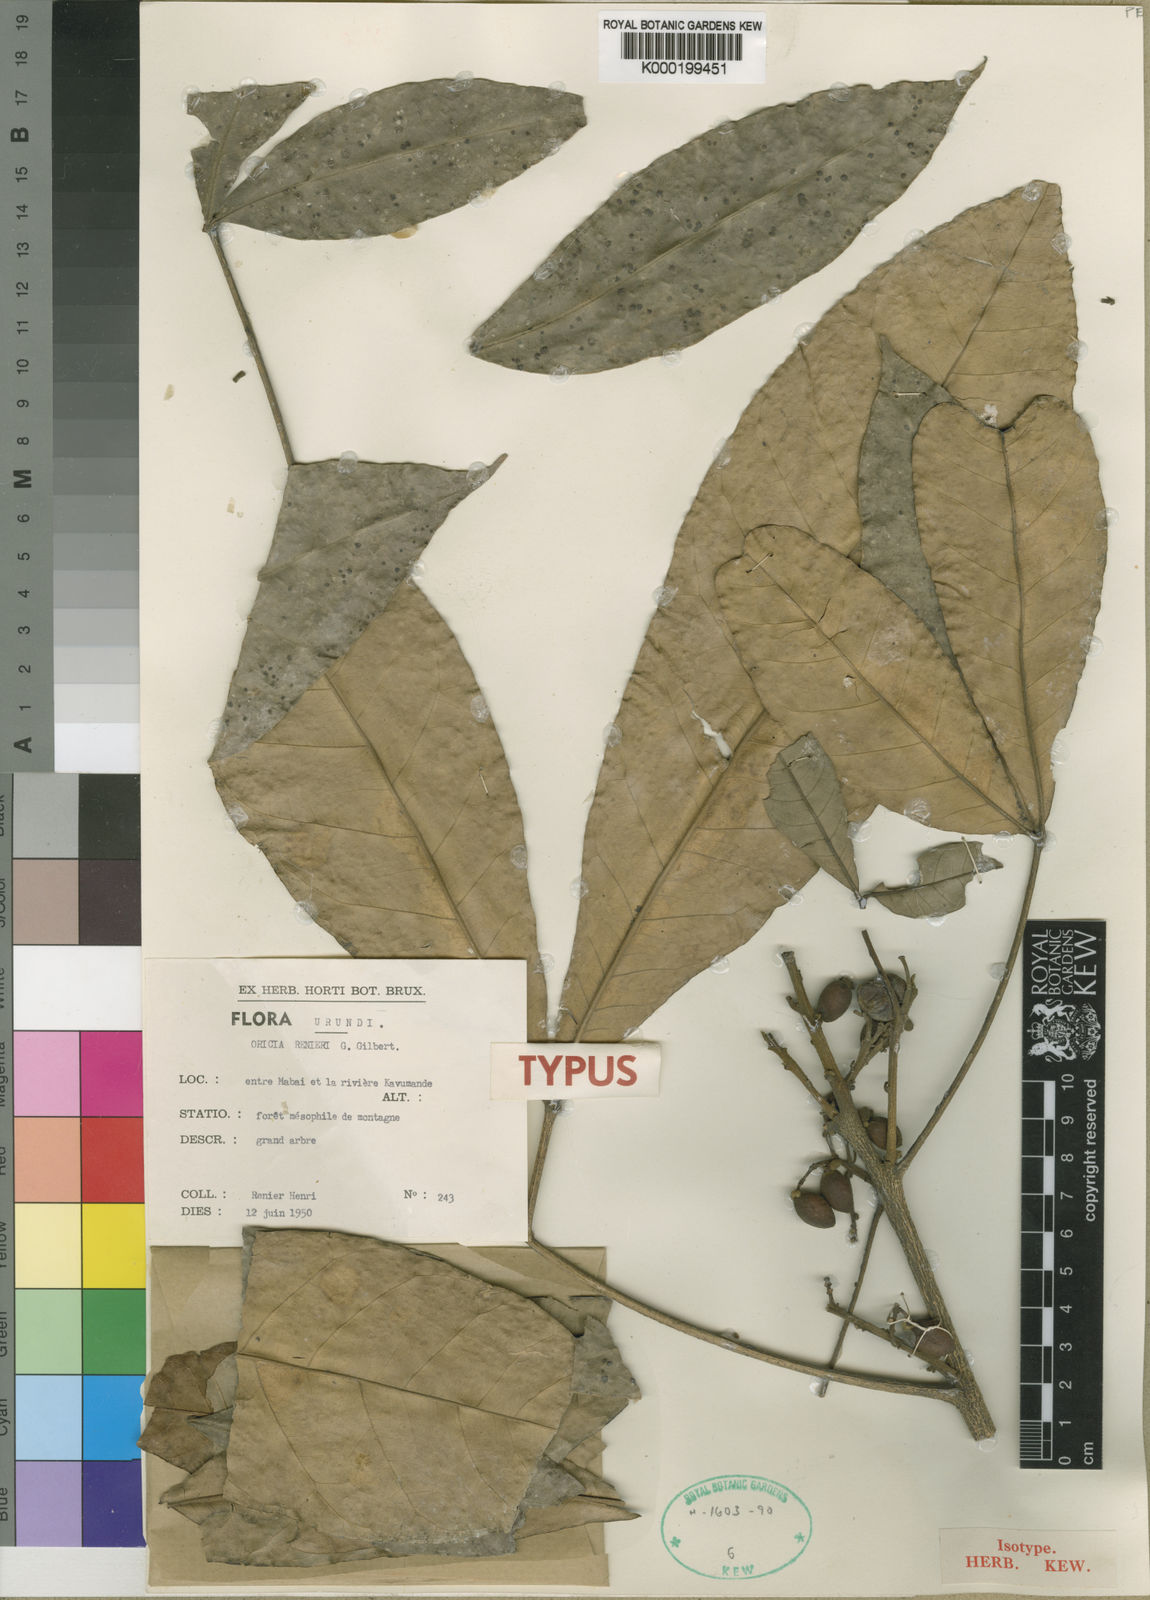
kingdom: Plantae
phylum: Tracheophyta
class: Magnoliopsida
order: Sapindales
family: Rutaceae
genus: Vepris
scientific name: Vepris renieri
